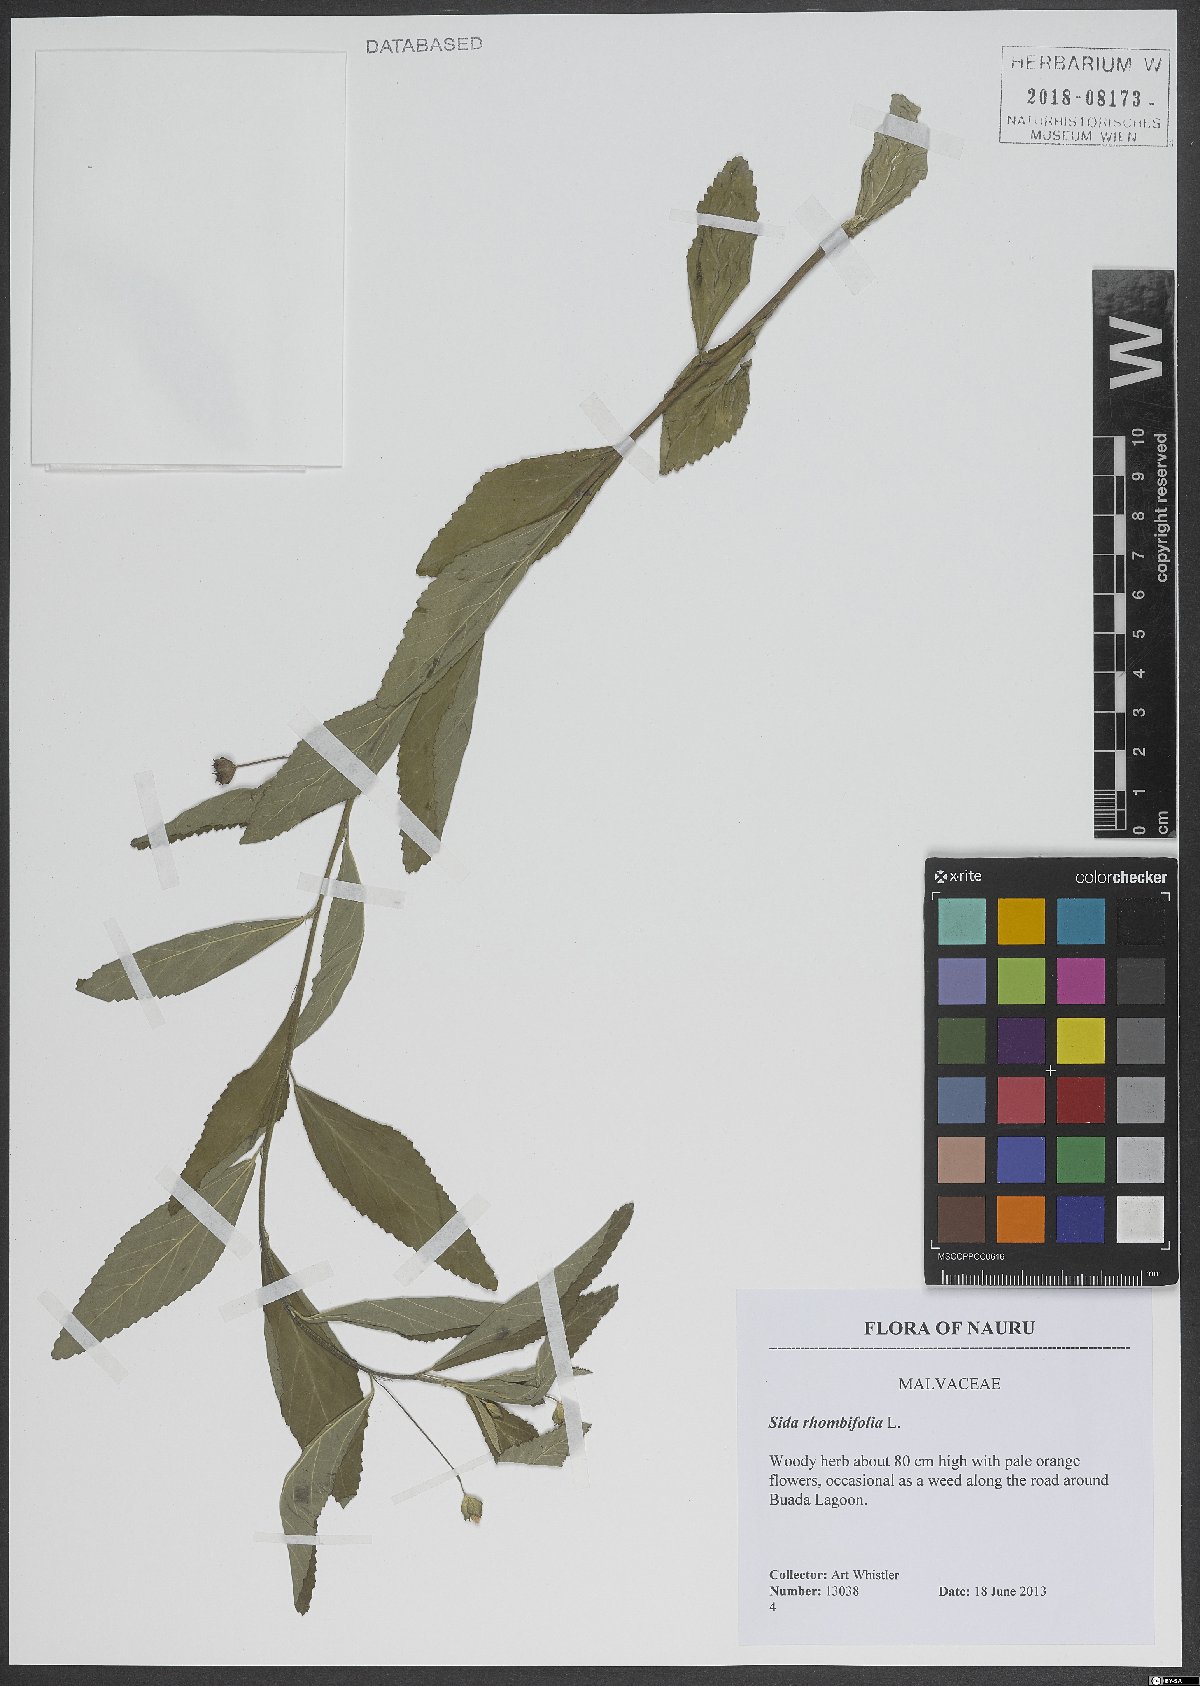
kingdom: Plantae
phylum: Tracheophyta
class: Magnoliopsida
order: Malvales
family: Malvaceae
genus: Sida
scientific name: Sida rhombifolia
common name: Queensland-hemp
